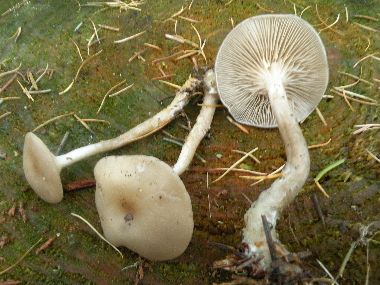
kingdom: Fungi
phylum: Basidiomycota
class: Agaricomycetes
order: Agaricales
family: Tricholomataceae
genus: Clitocybe
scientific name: Clitocybe metachroa
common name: grå tragthat
